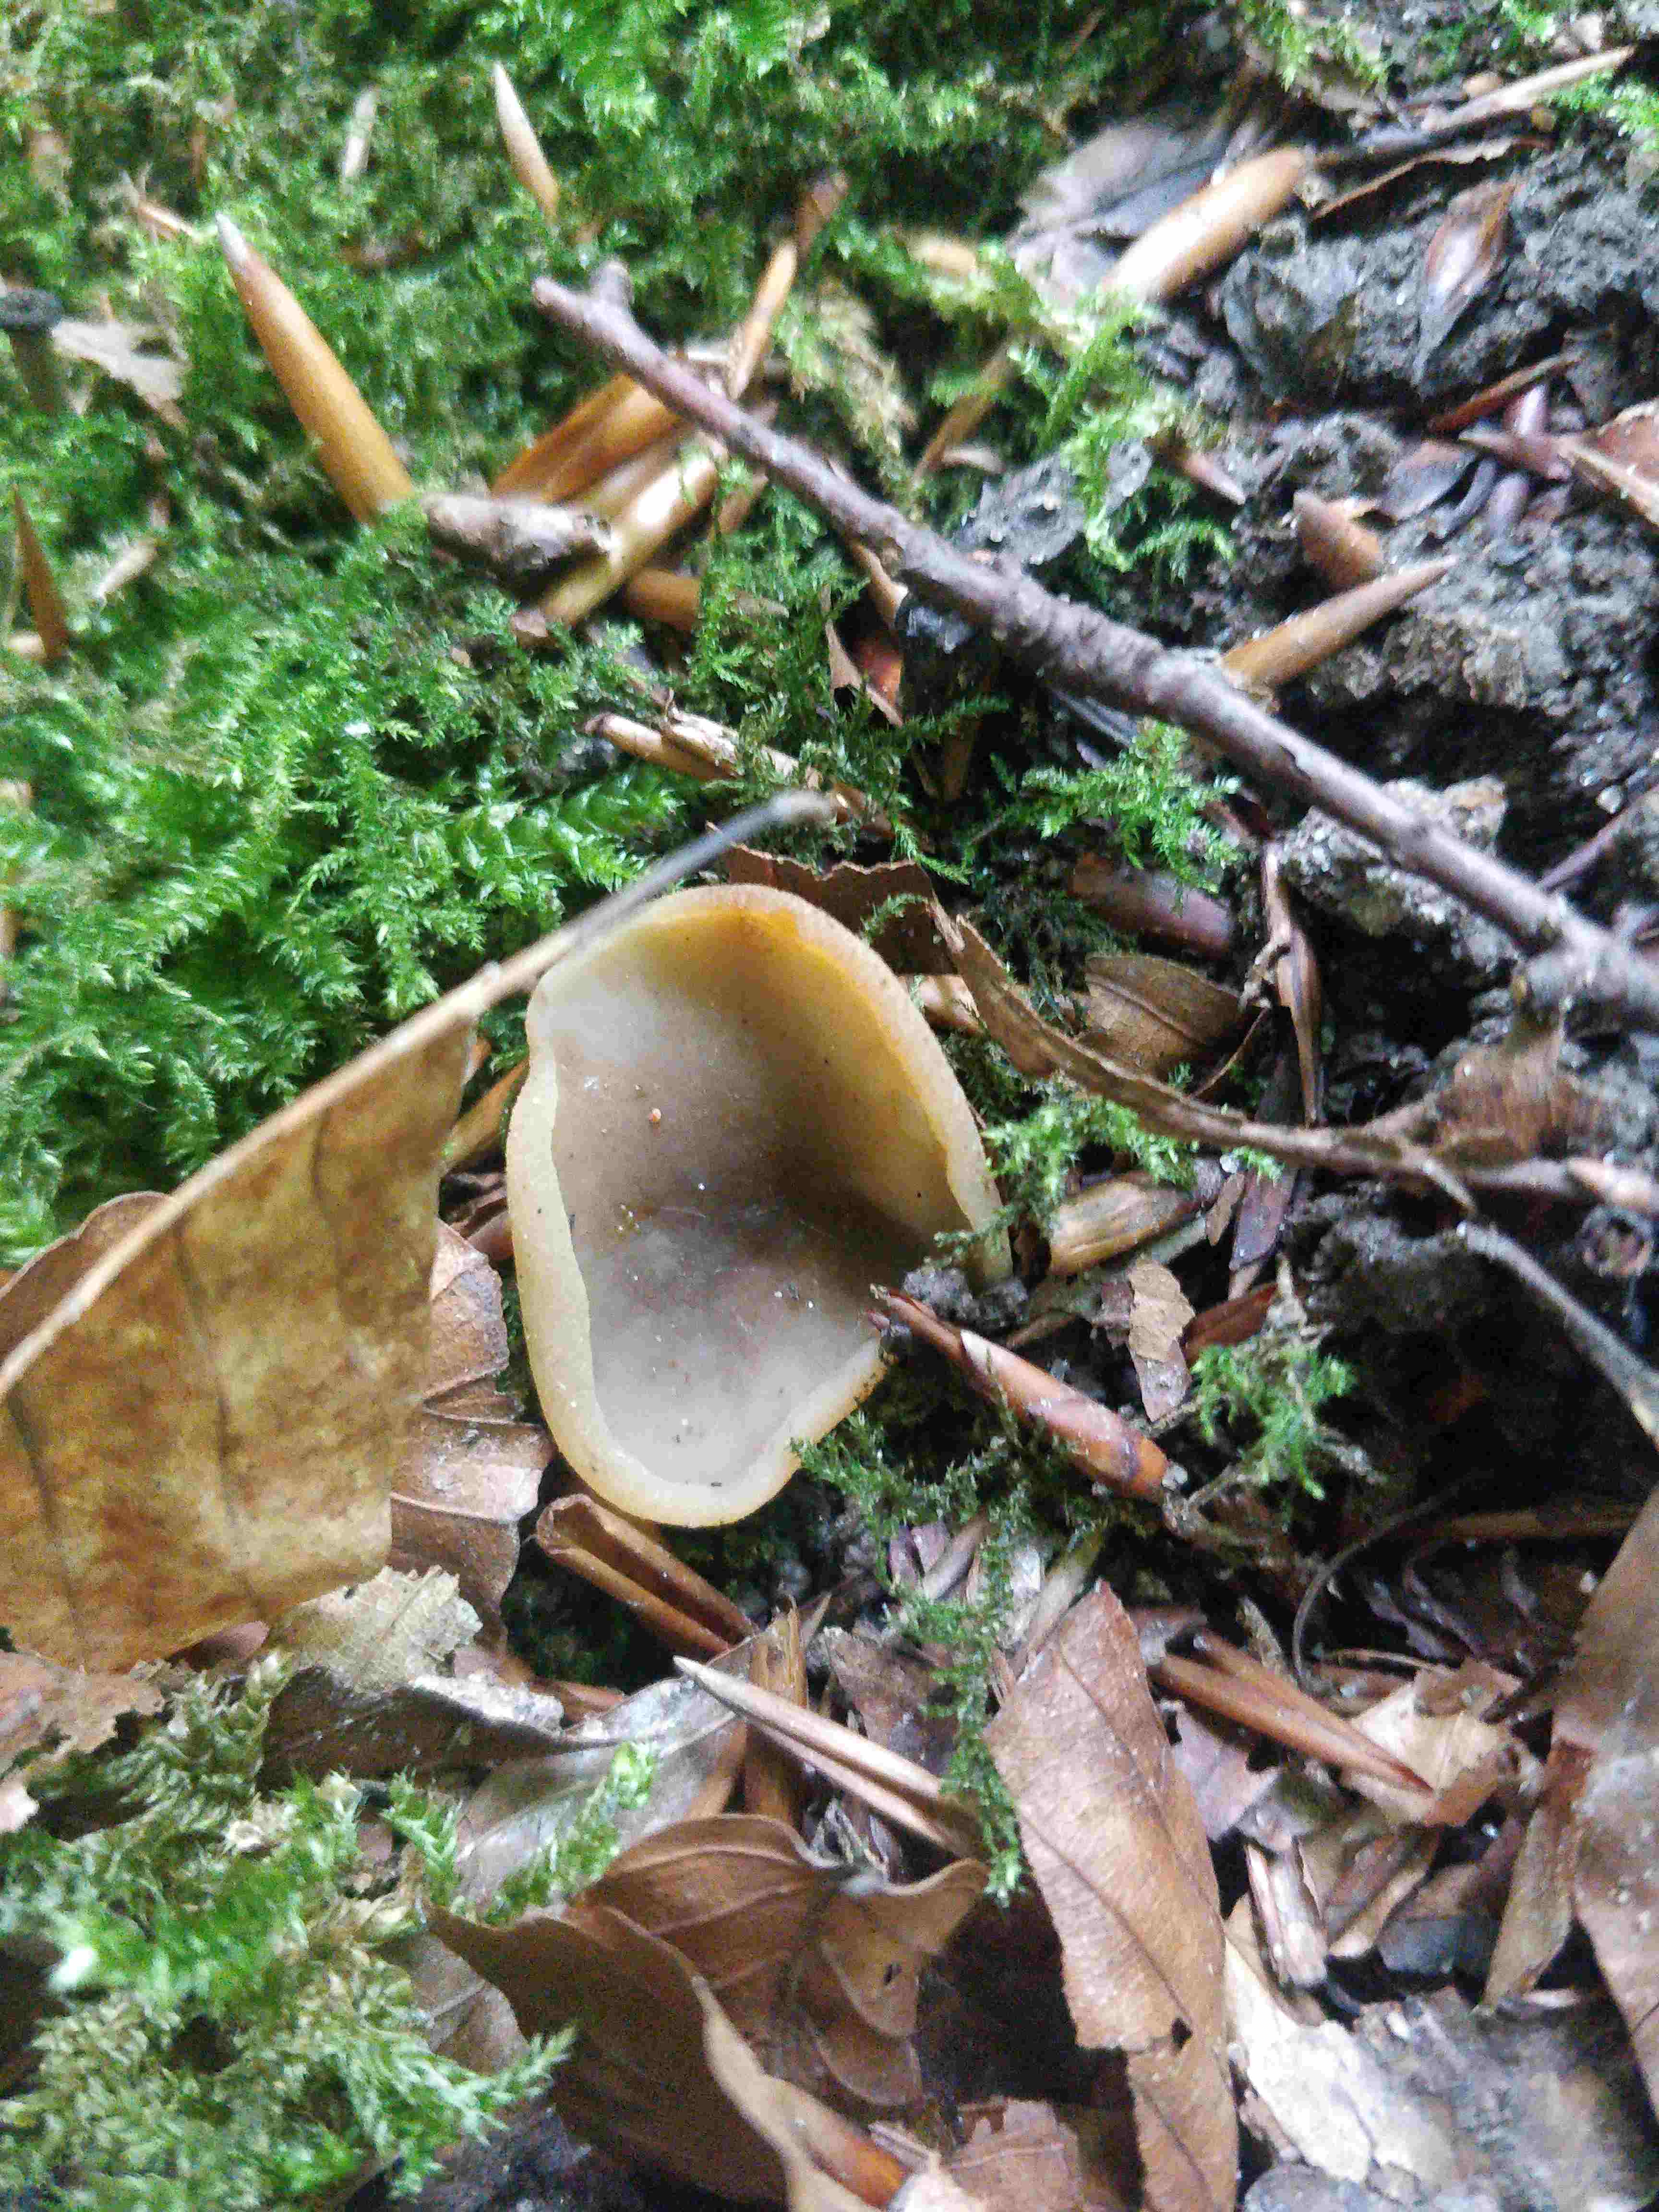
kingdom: Fungi
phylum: Ascomycota
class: Pezizomycetes
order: Pezizales
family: Pezizaceae
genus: Paragalactinia
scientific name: Paragalactinia succosa
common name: gulmælket bægersvamp
